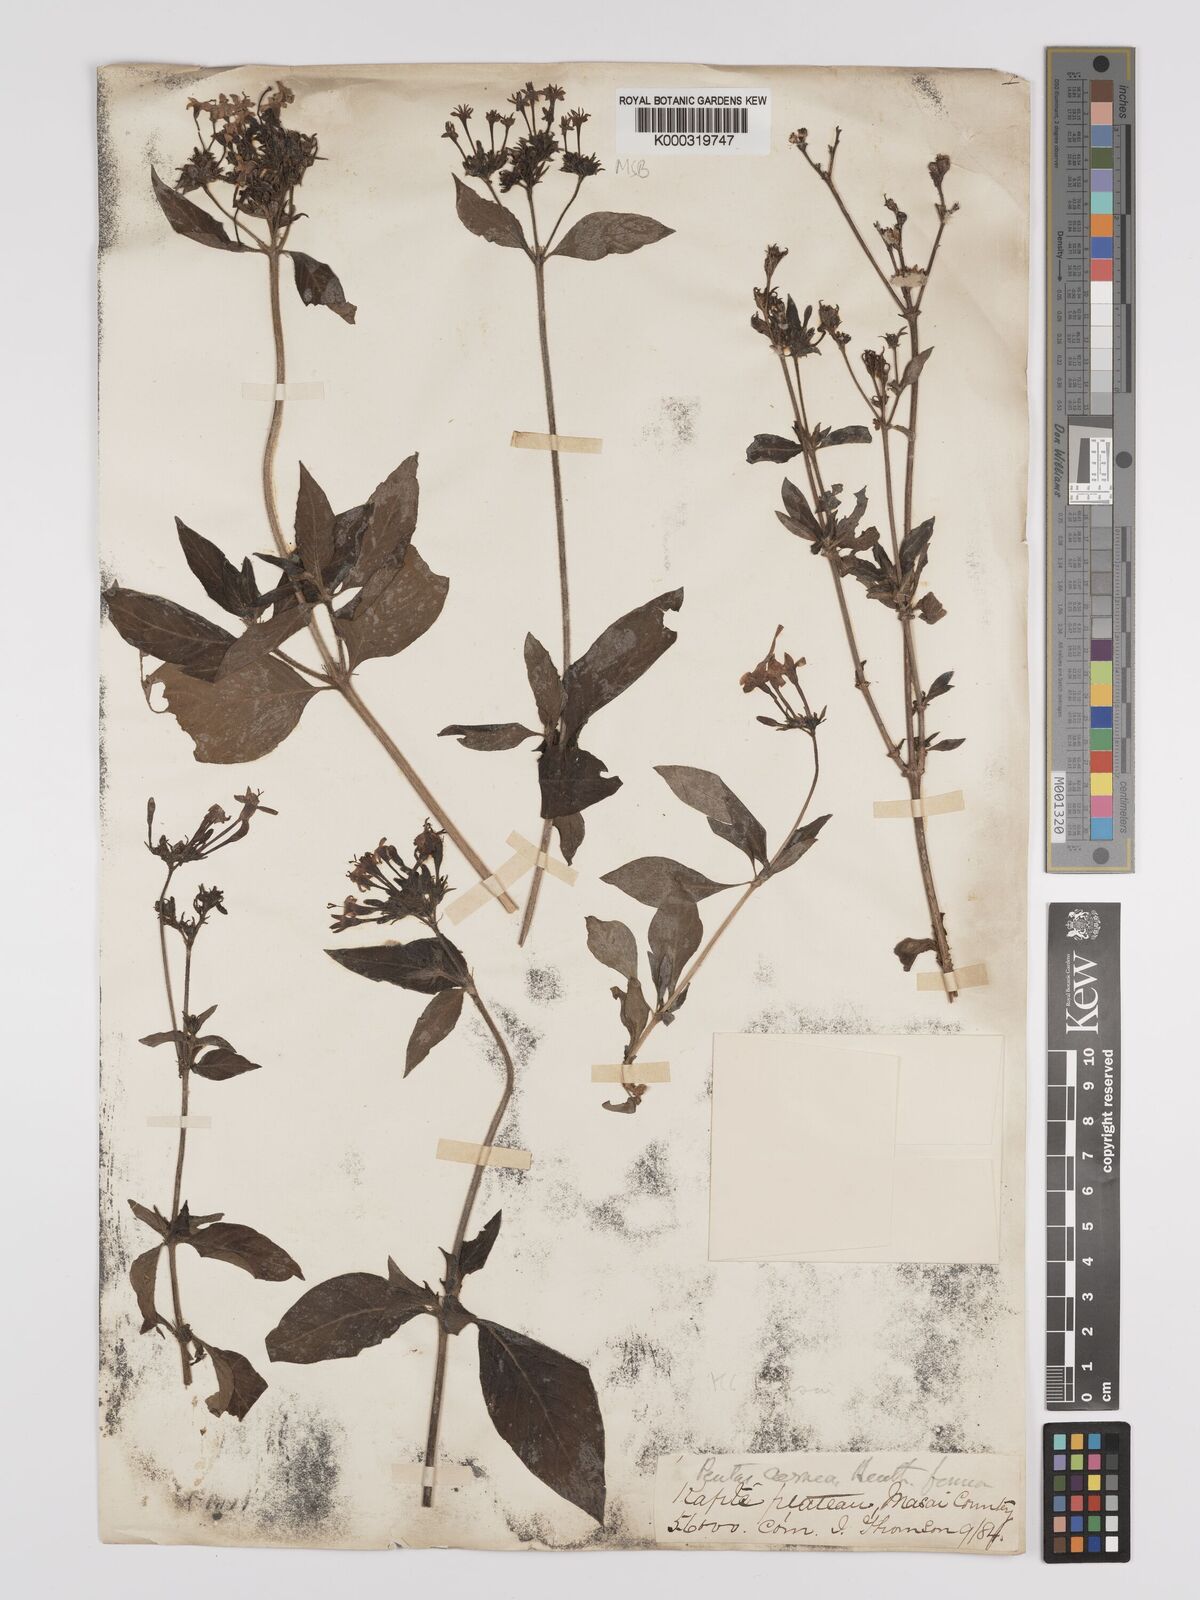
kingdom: Plantae
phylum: Tracheophyta
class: Magnoliopsida
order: Gentianales
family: Rubiaceae
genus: Pentas
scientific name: Pentas lanceolata
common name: Egyptian starcluster
